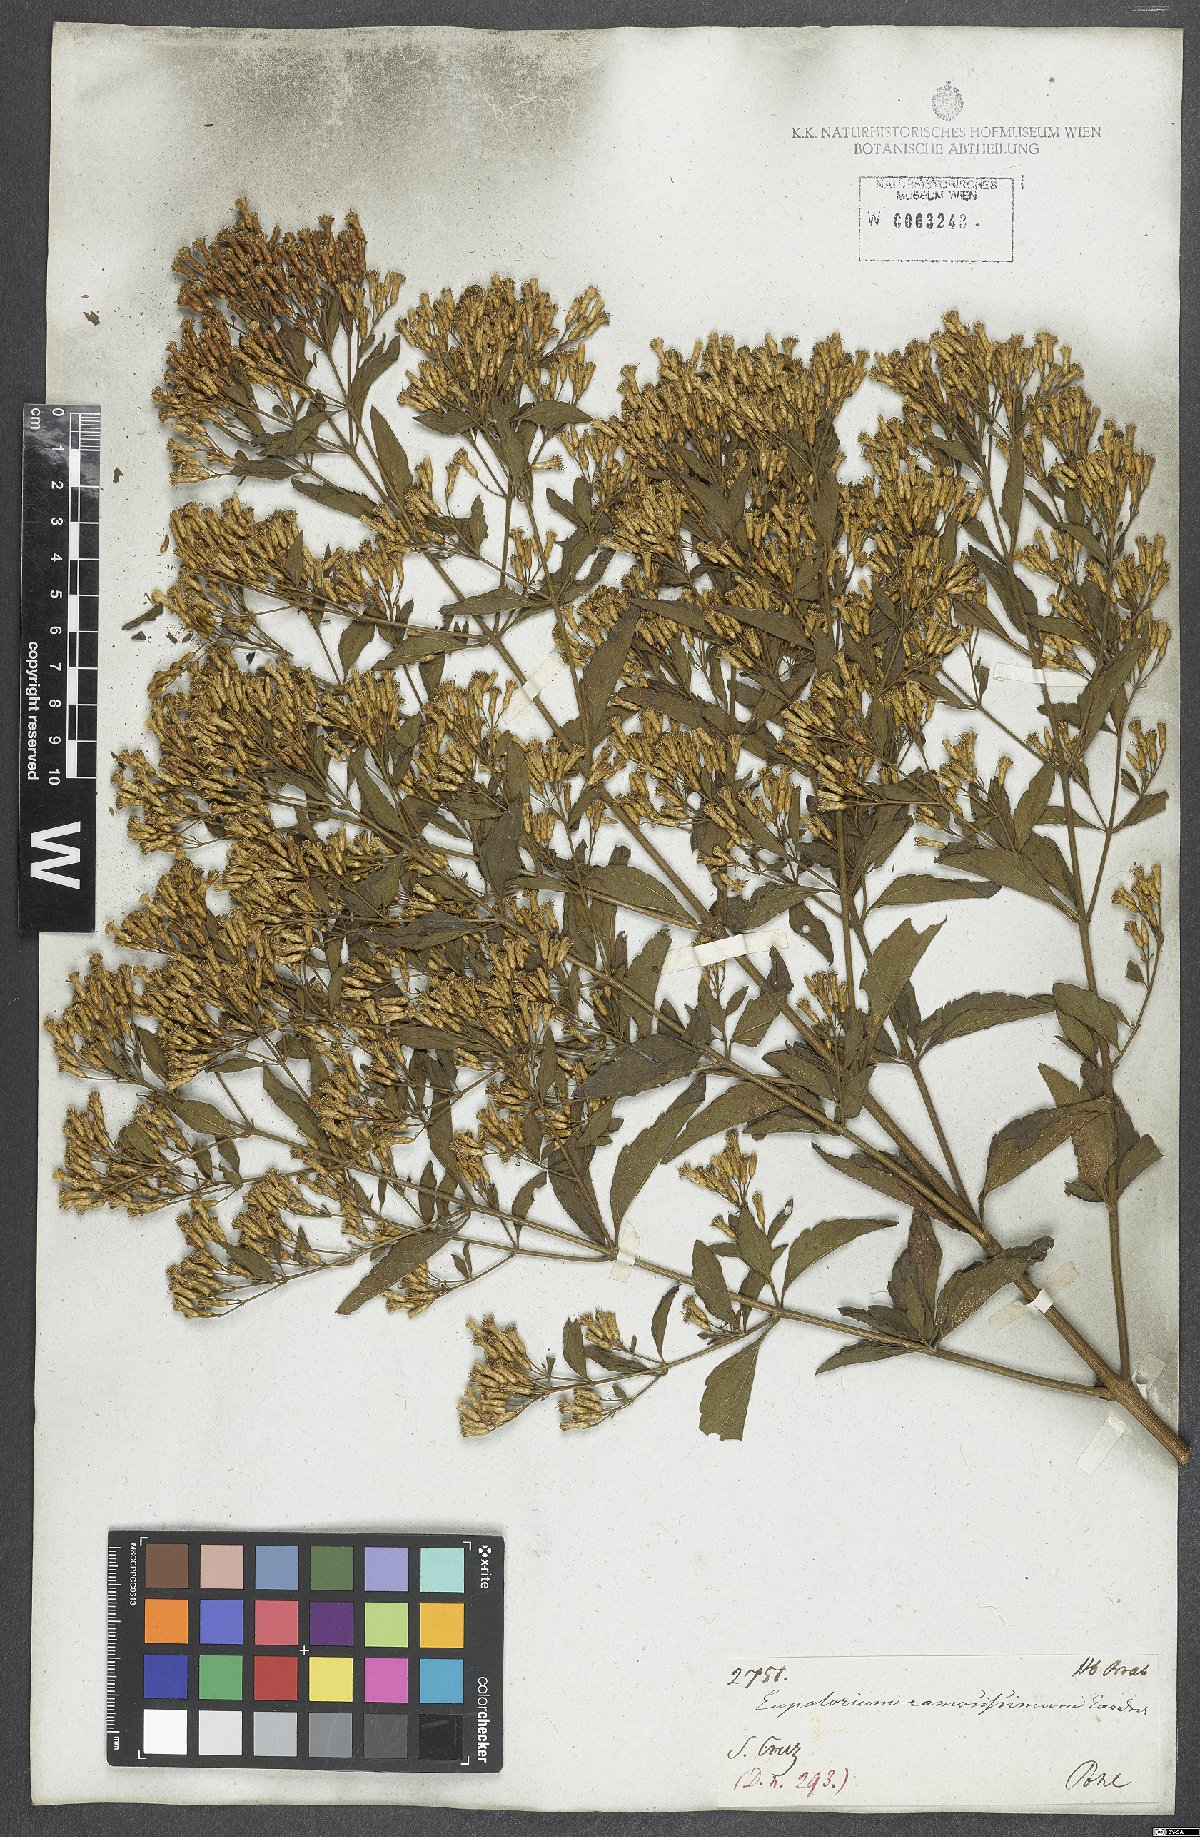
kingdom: Plantae
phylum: Tracheophyta
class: Magnoliopsida
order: Asterales
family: Asteraceae
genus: Chromolaena
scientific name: Chromolaena squalida
